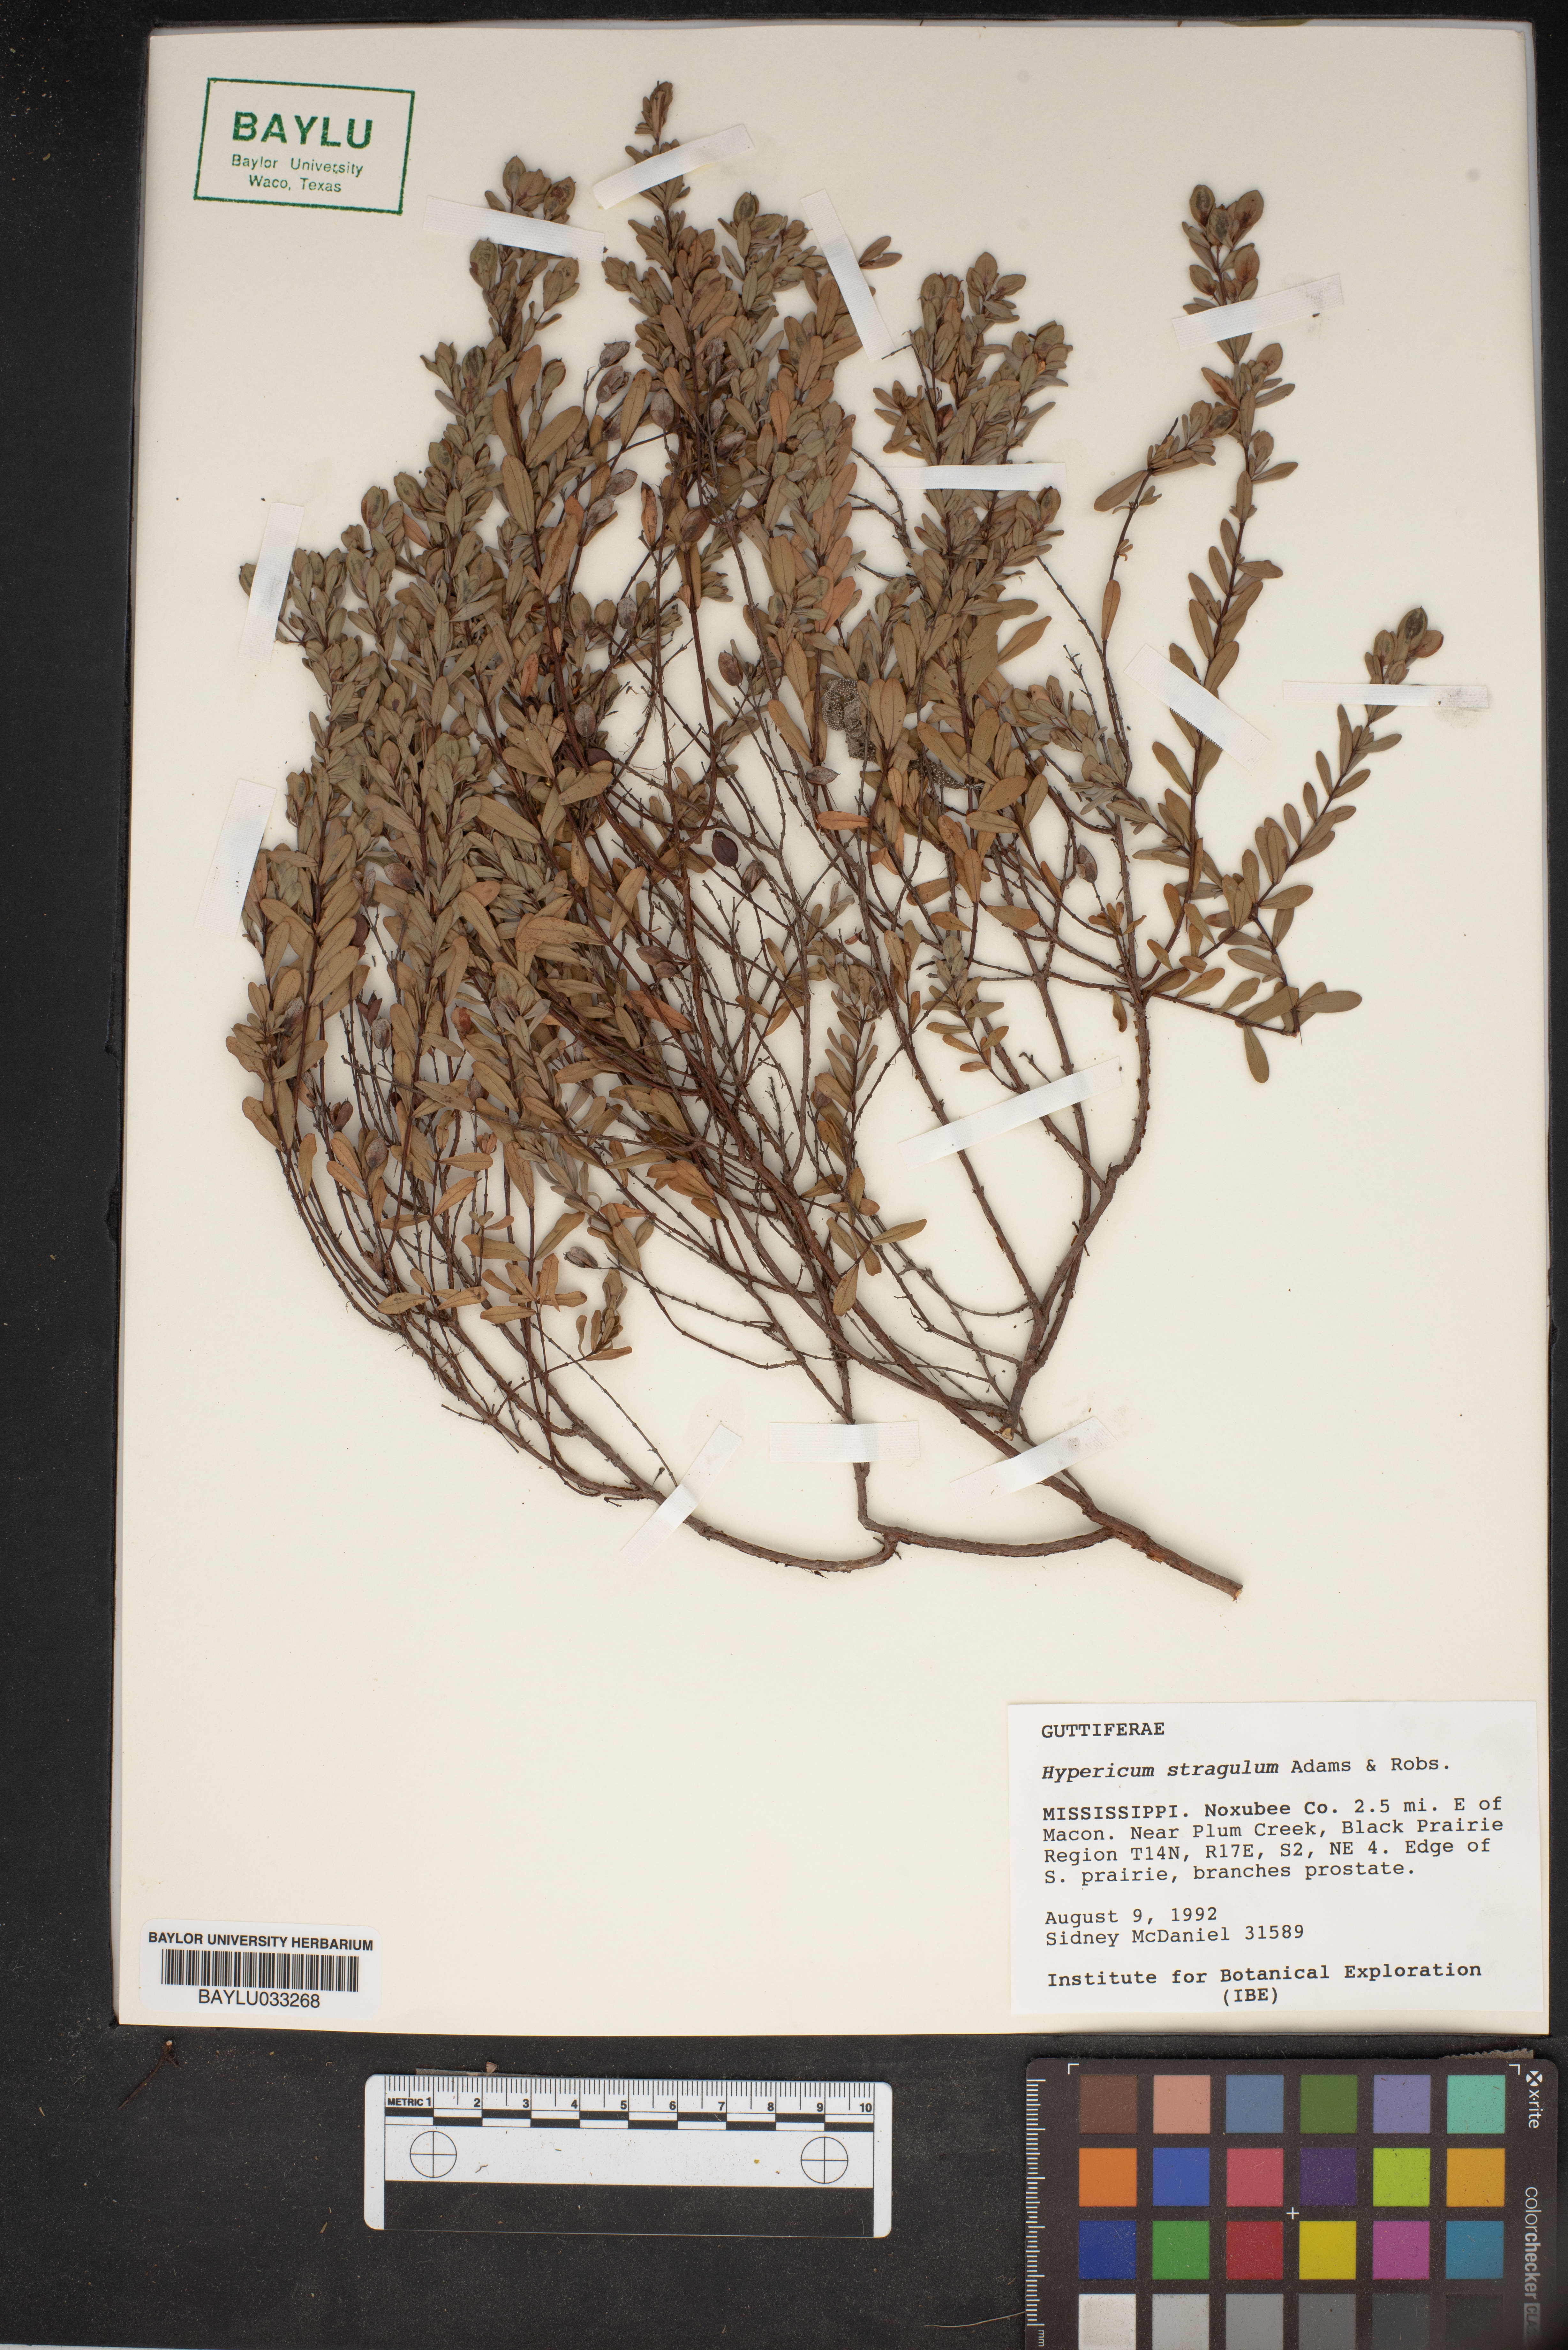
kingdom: Plantae
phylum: Tracheophyta
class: Magnoliopsida
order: Malpighiales
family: Hypericaceae
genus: Hypericum
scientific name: Hypericum hypericoides
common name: St. andrew's cross
